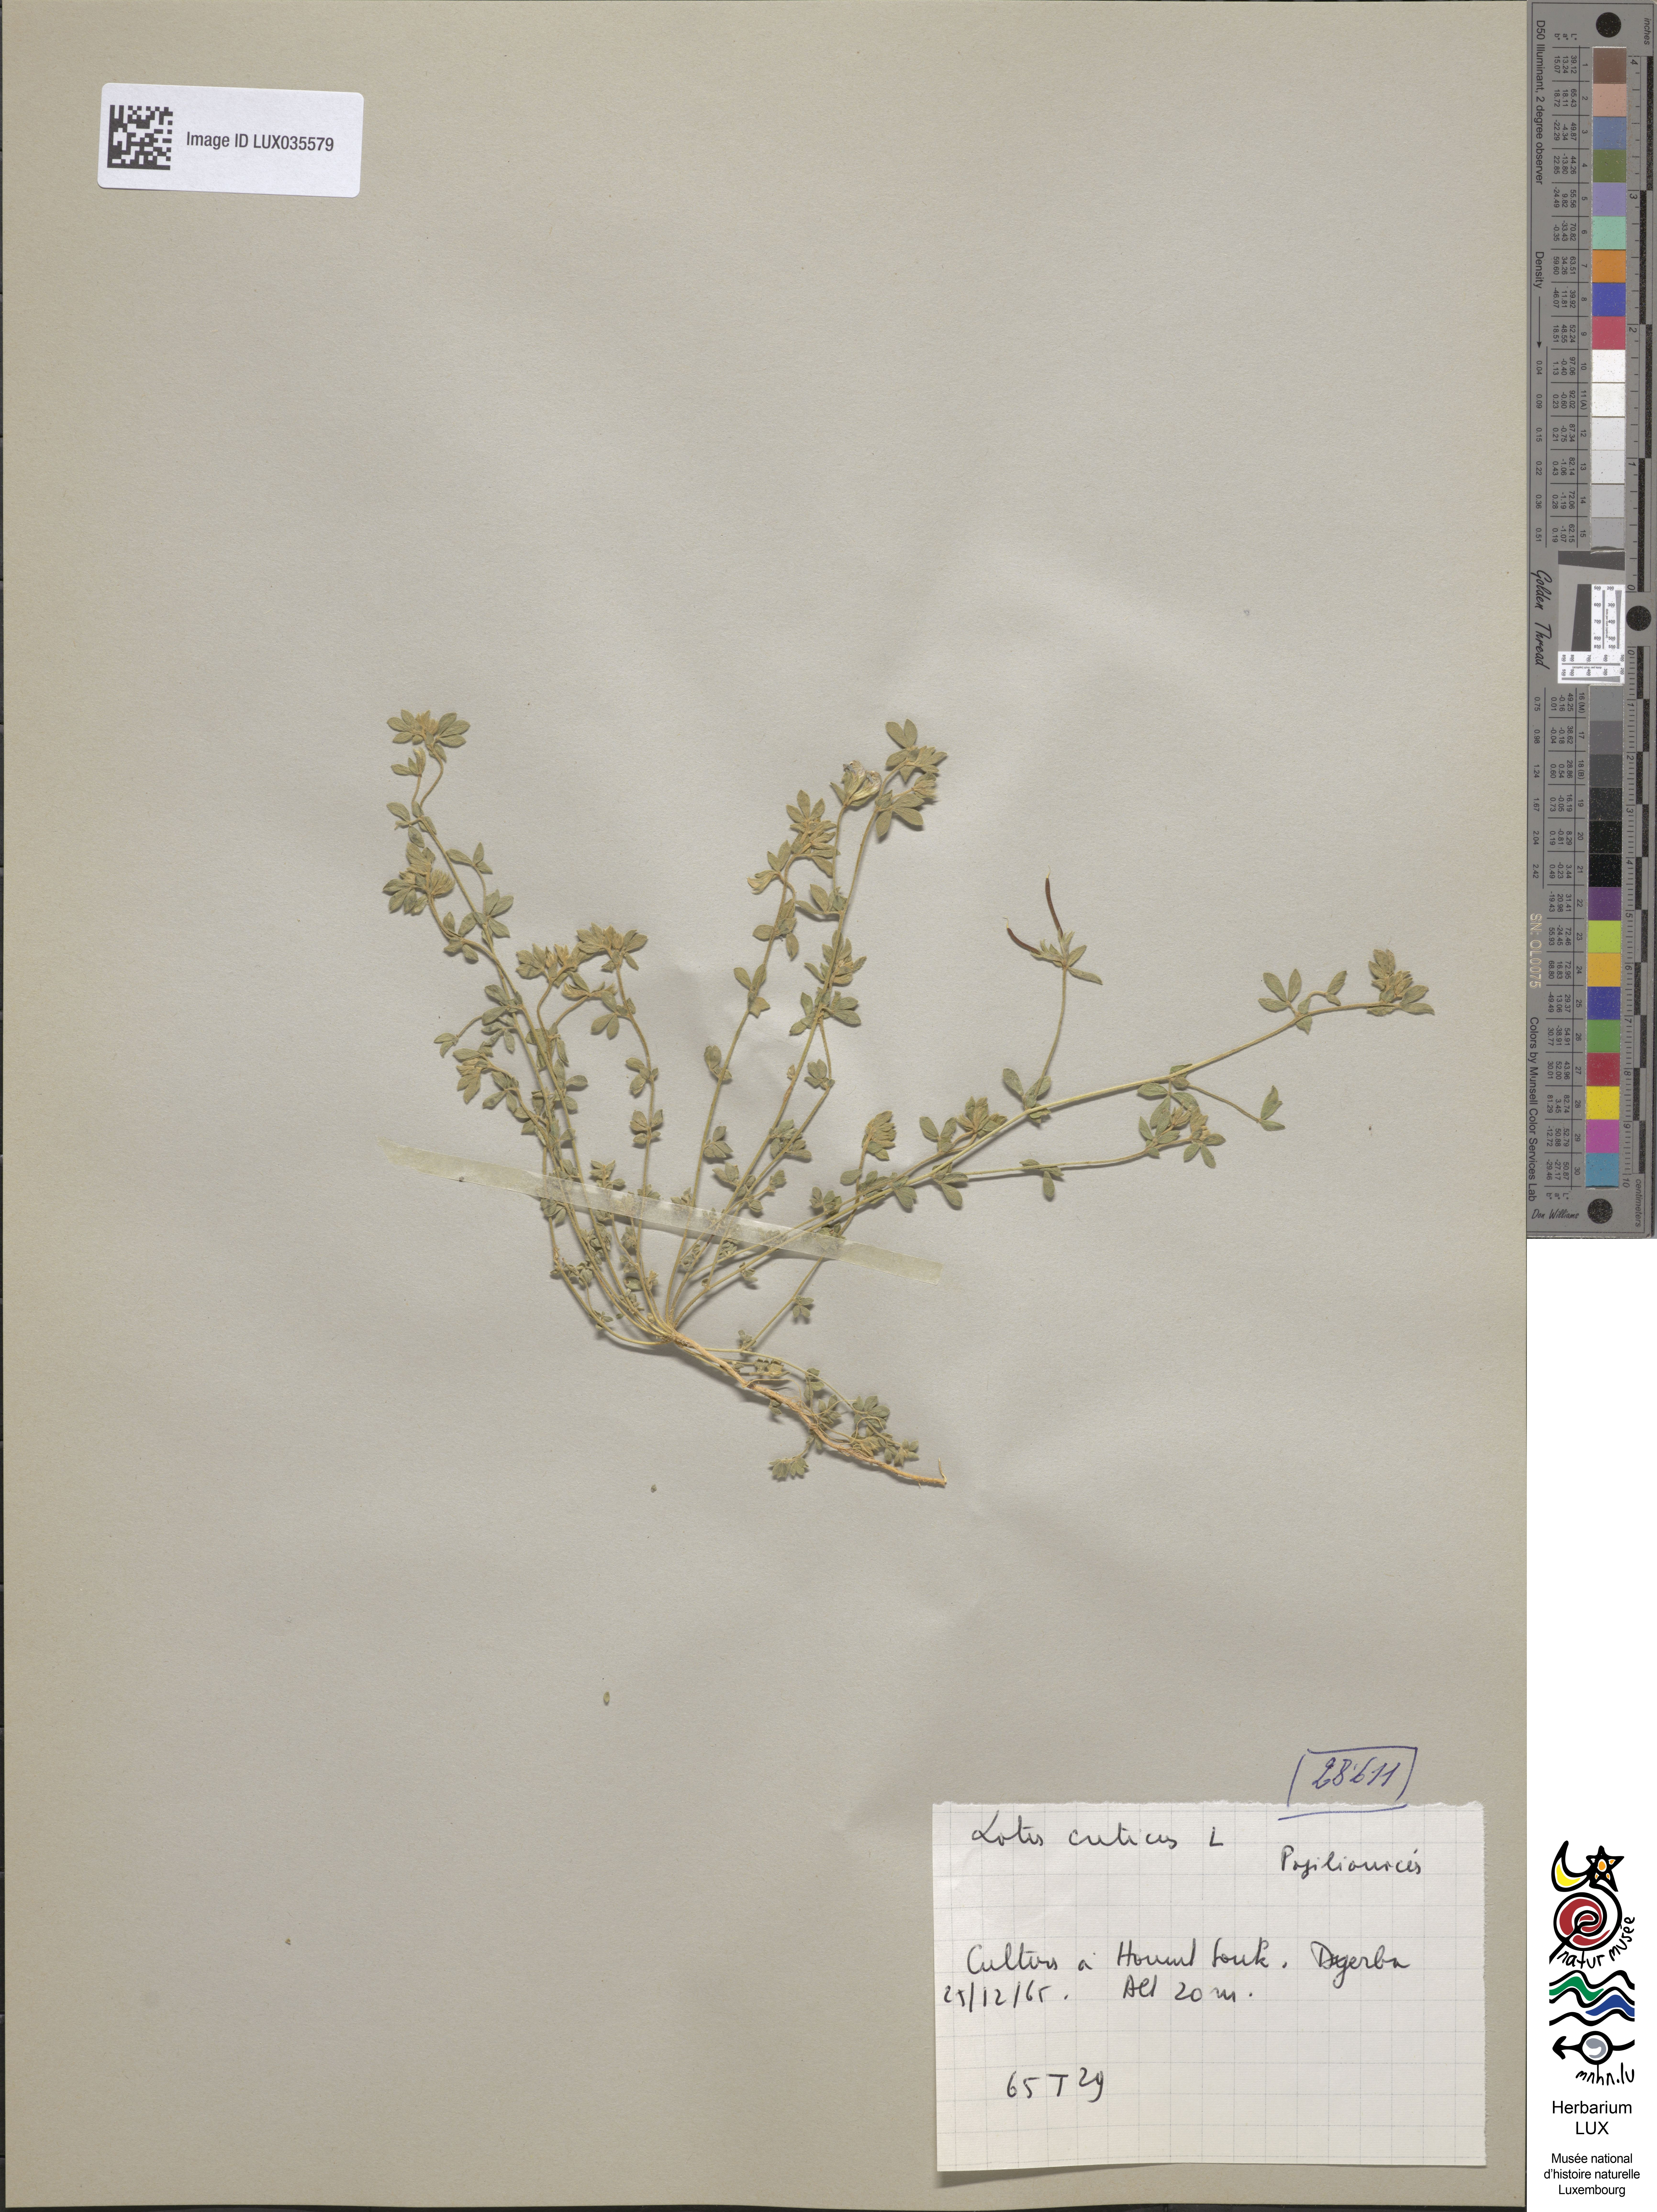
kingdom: Plantae
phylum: Tracheophyta
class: Magnoliopsida
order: Fabales
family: Fabaceae
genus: Lotus
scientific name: Lotus creticus
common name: Cretan bird's-foot trefoil
